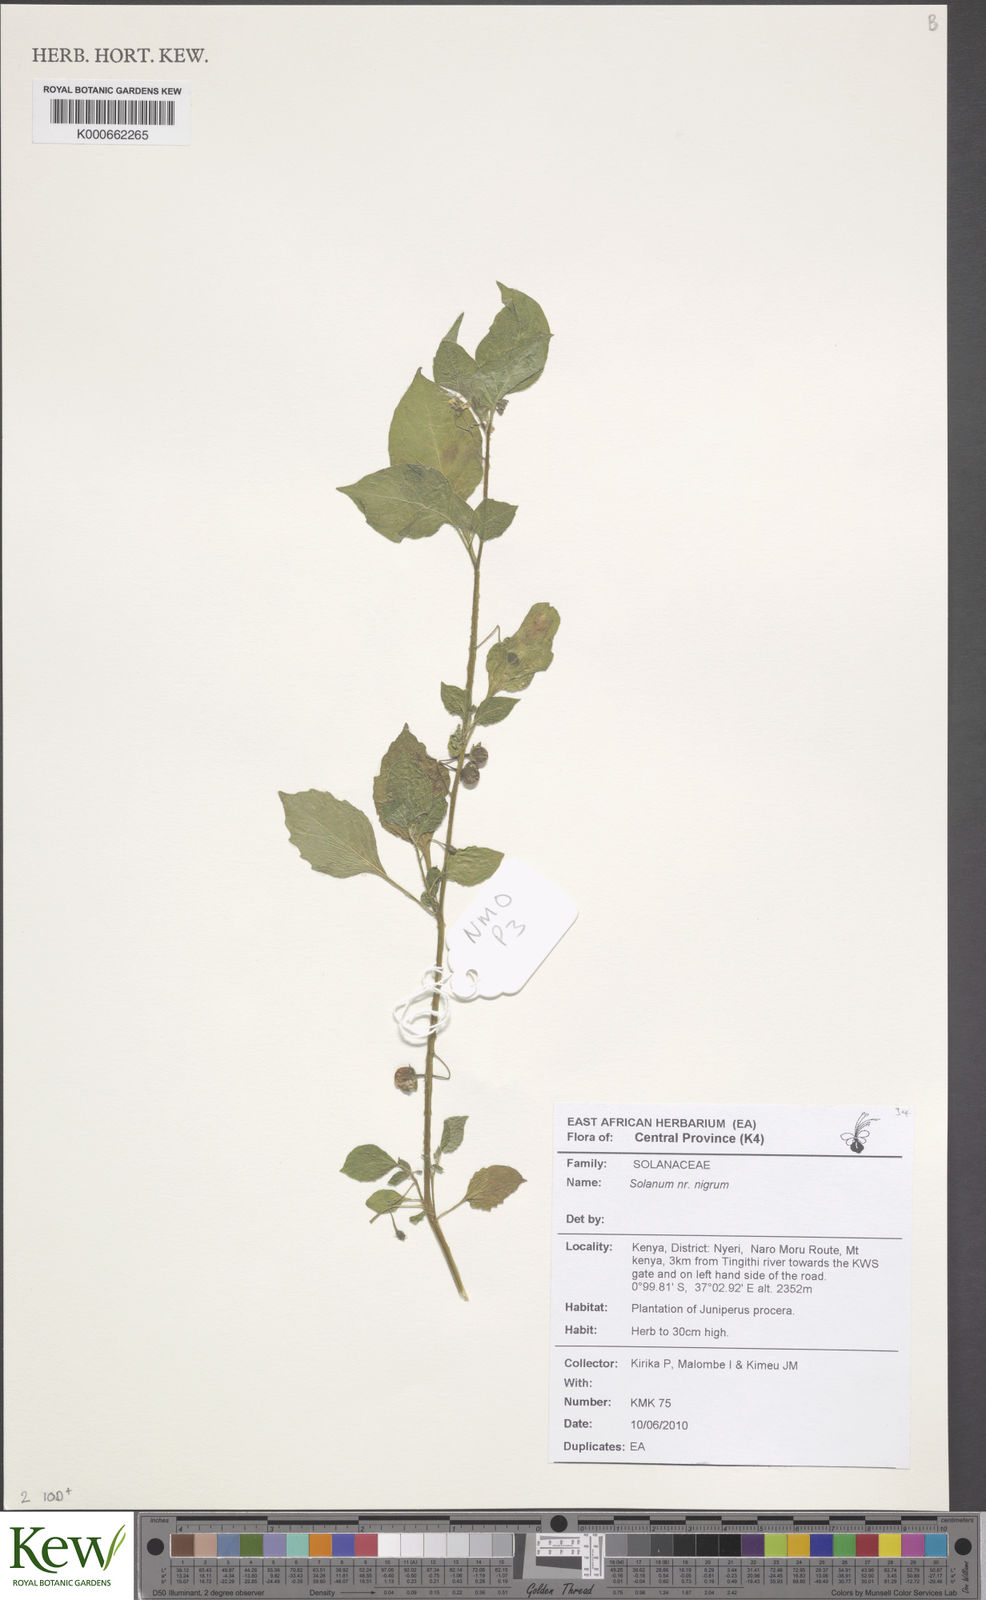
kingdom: Plantae
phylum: Tracheophyta
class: Magnoliopsida
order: Solanales
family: Solanaceae
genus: Solanum
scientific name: Solanum nigrum
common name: Black nightshade
